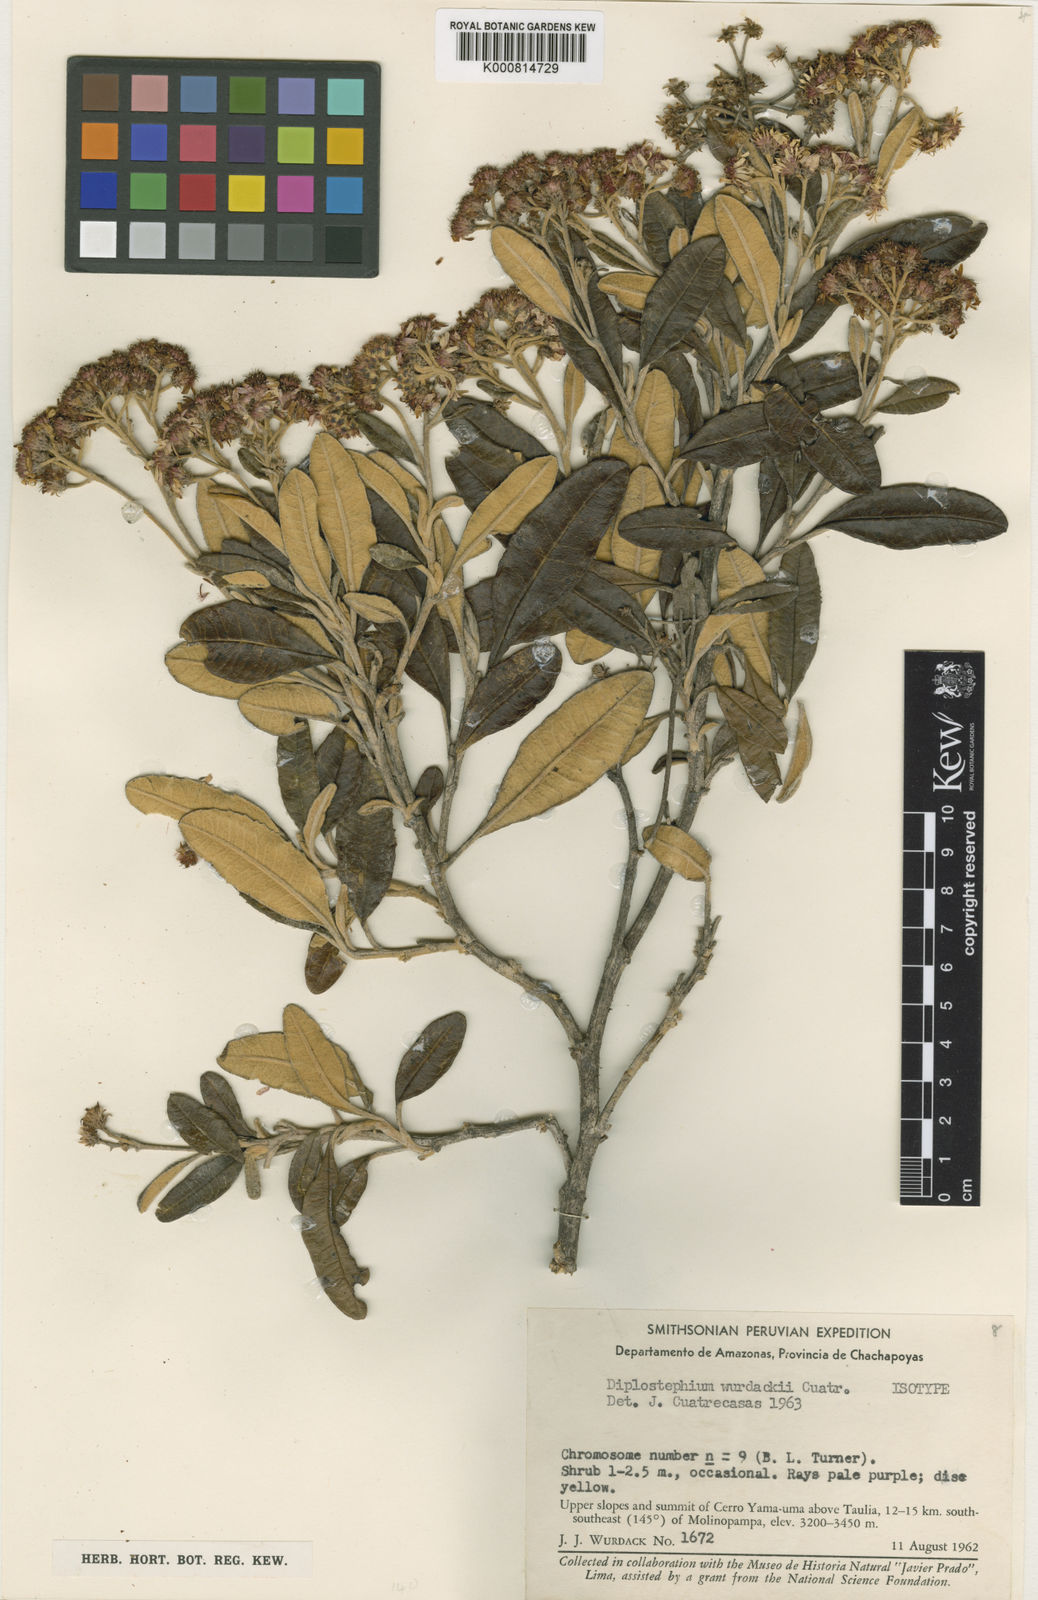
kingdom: Plantae
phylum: Tracheophyta
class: Magnoliopsida
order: Asterales
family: Asteraceae
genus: Diplostephium
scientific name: Diplostephium wurdackii
